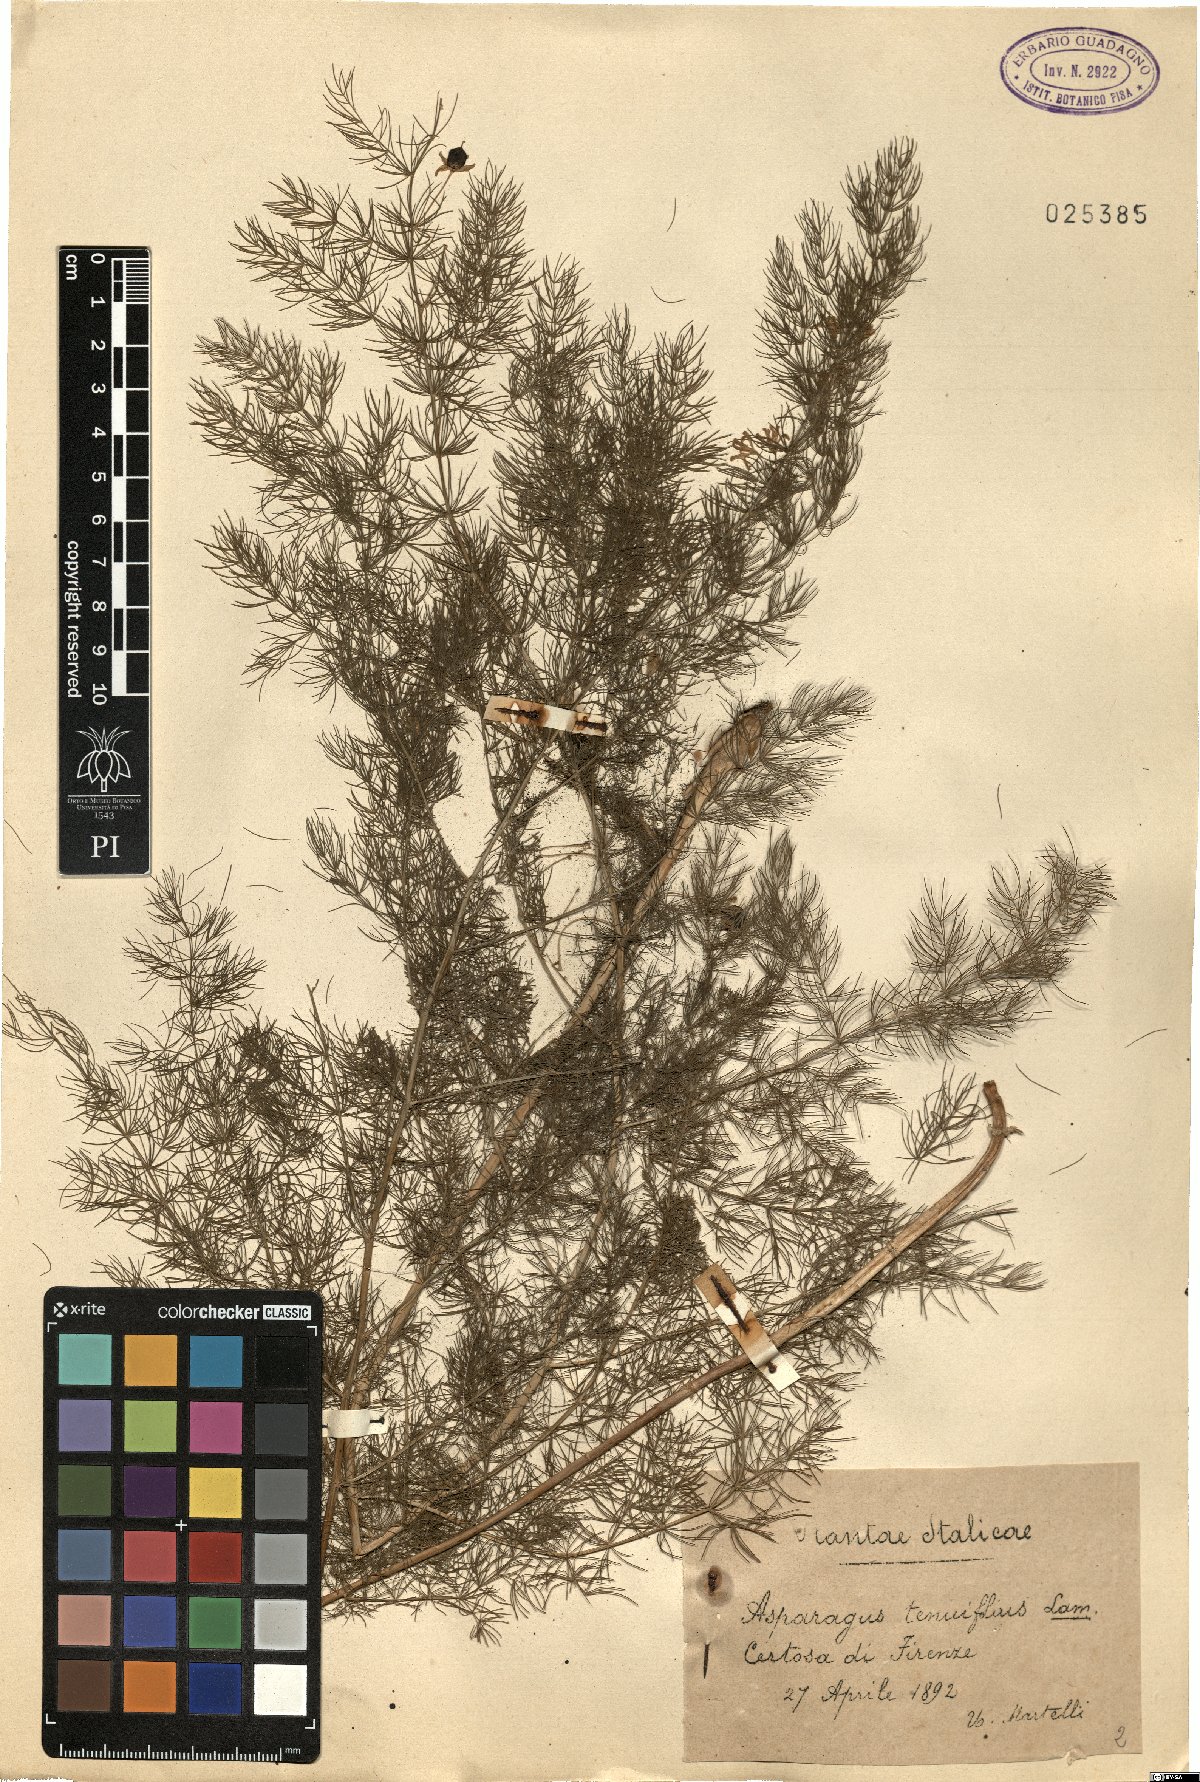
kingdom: Plantae
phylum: Tracheophyta
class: Liliopsida
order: Asparagales
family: Asparagaceae
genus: Asparagus
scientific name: Asparagus tenuifolius
